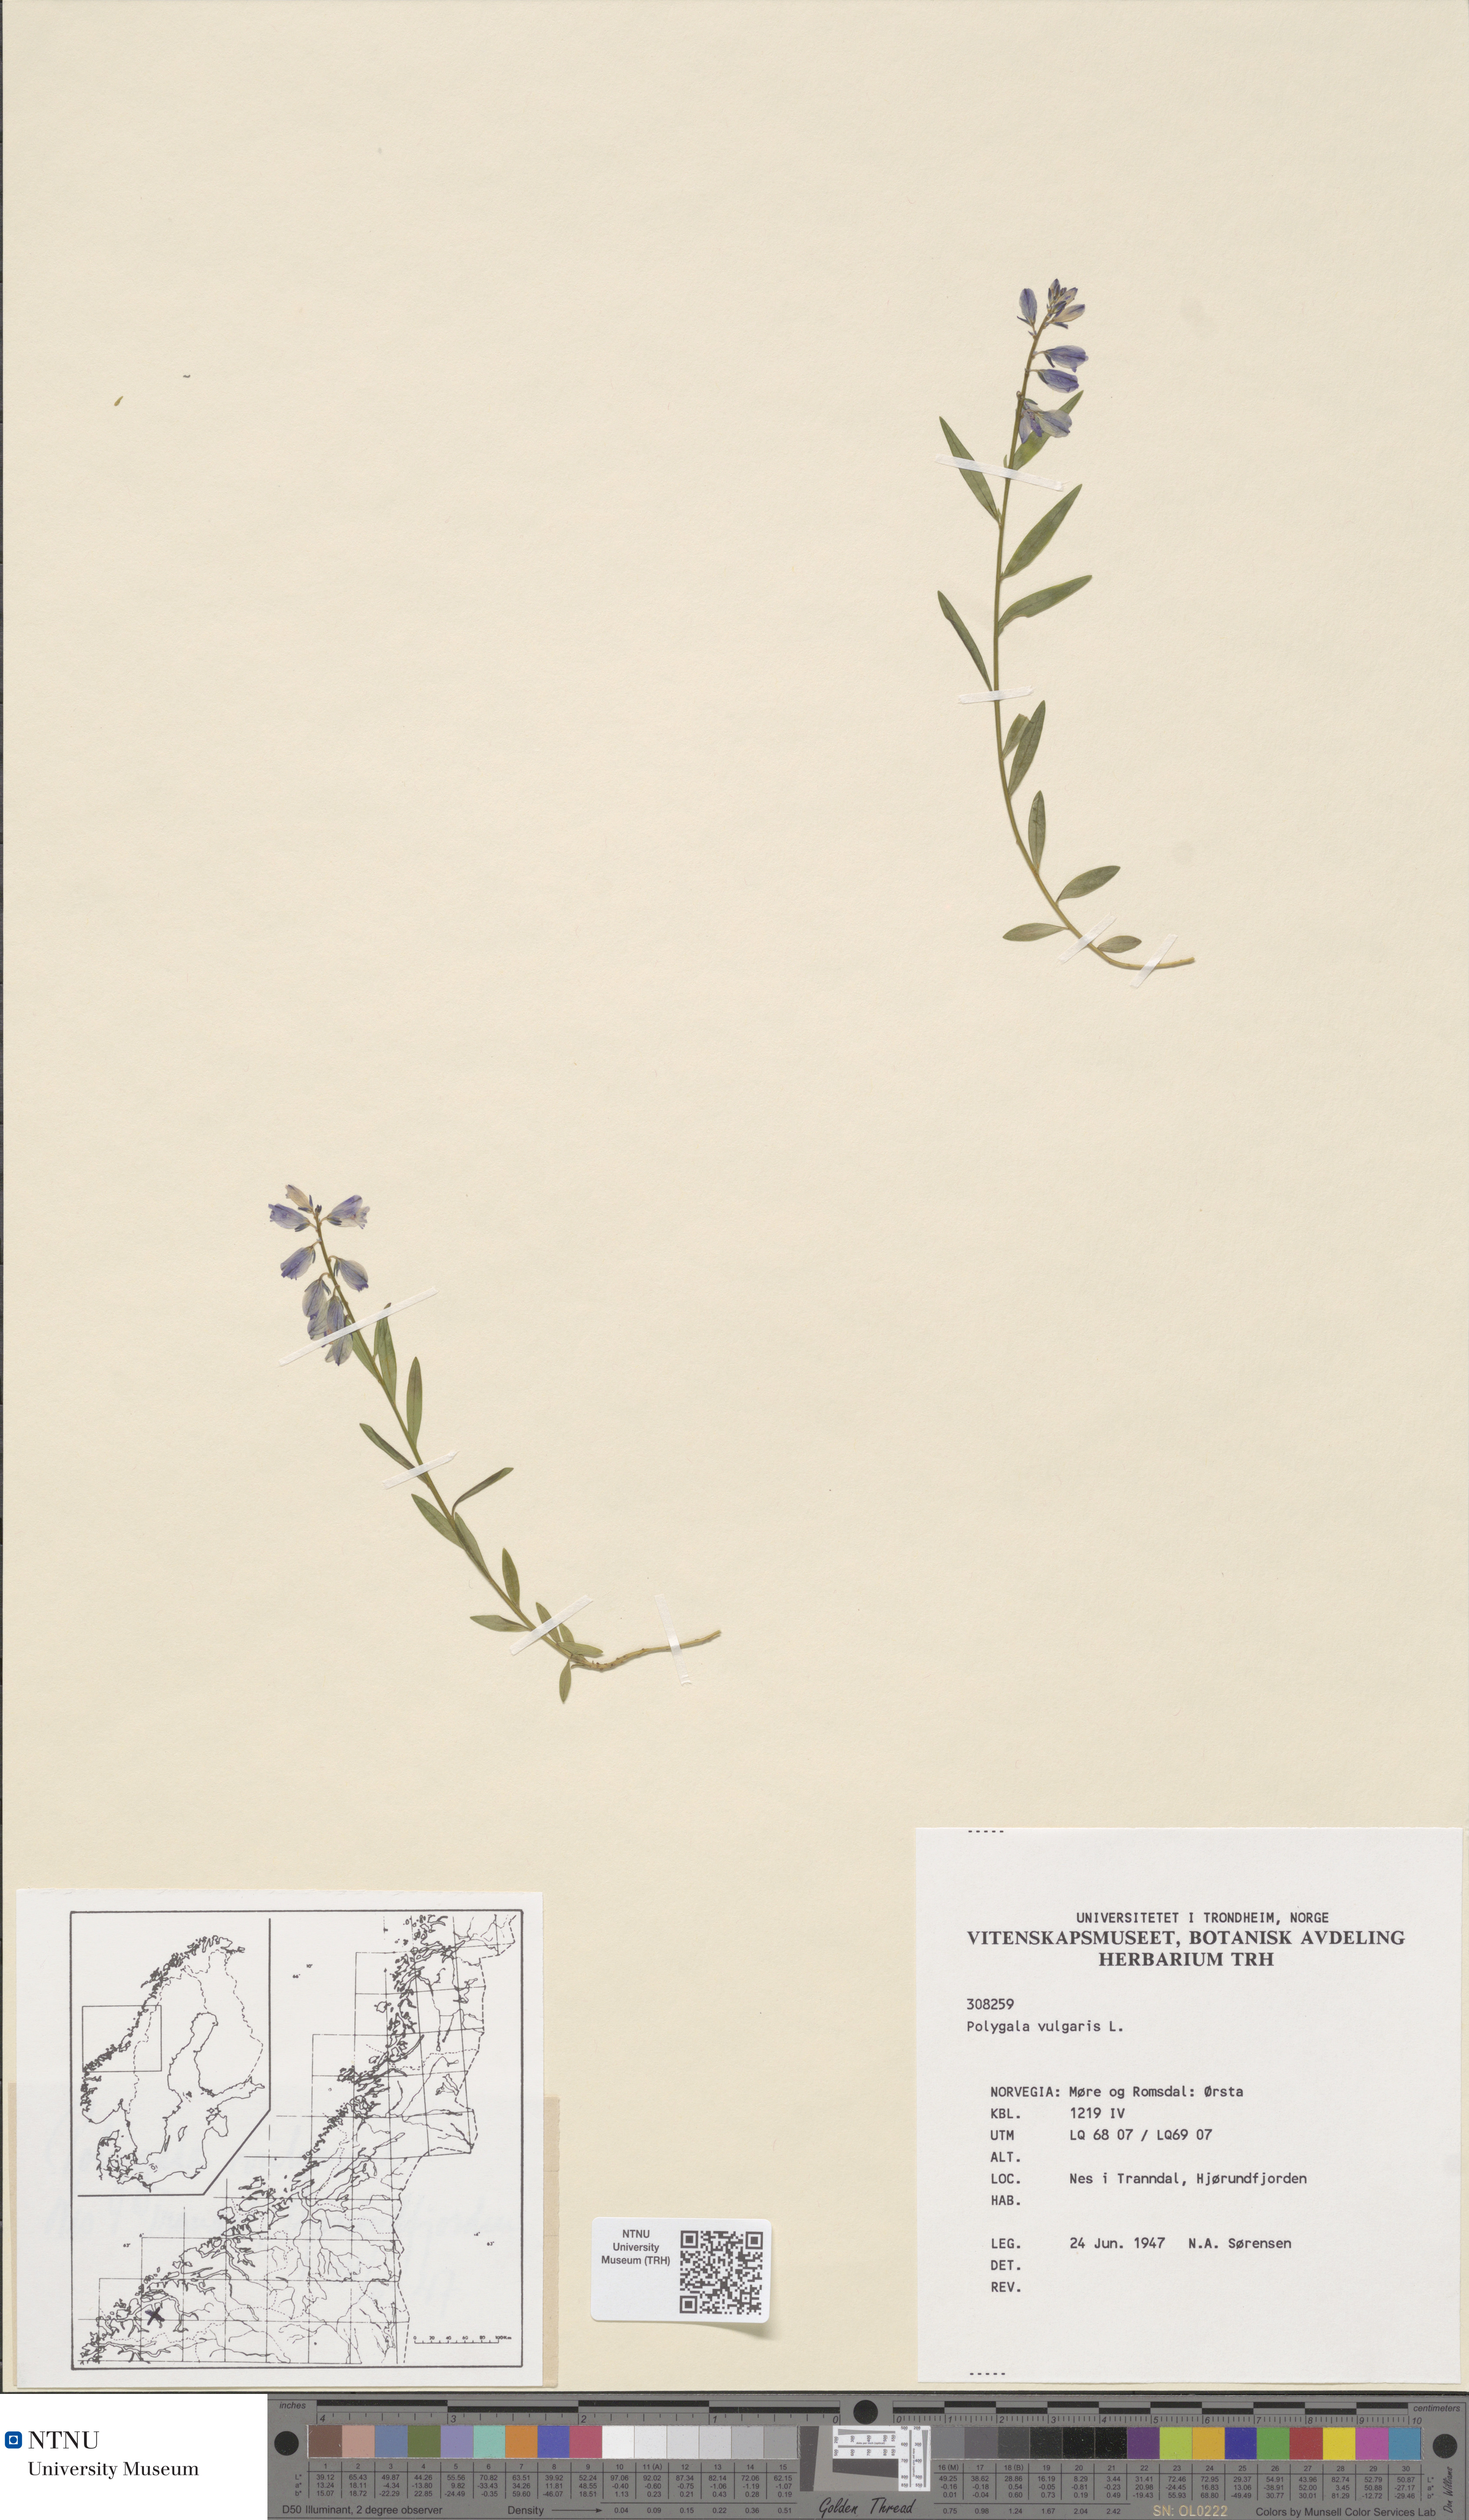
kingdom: Plantae
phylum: Tracheophyta
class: Magnoliopsida
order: Fabales
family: Polygalaceae
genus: Polygala
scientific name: Polygala vulgaris
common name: Common milkwort
